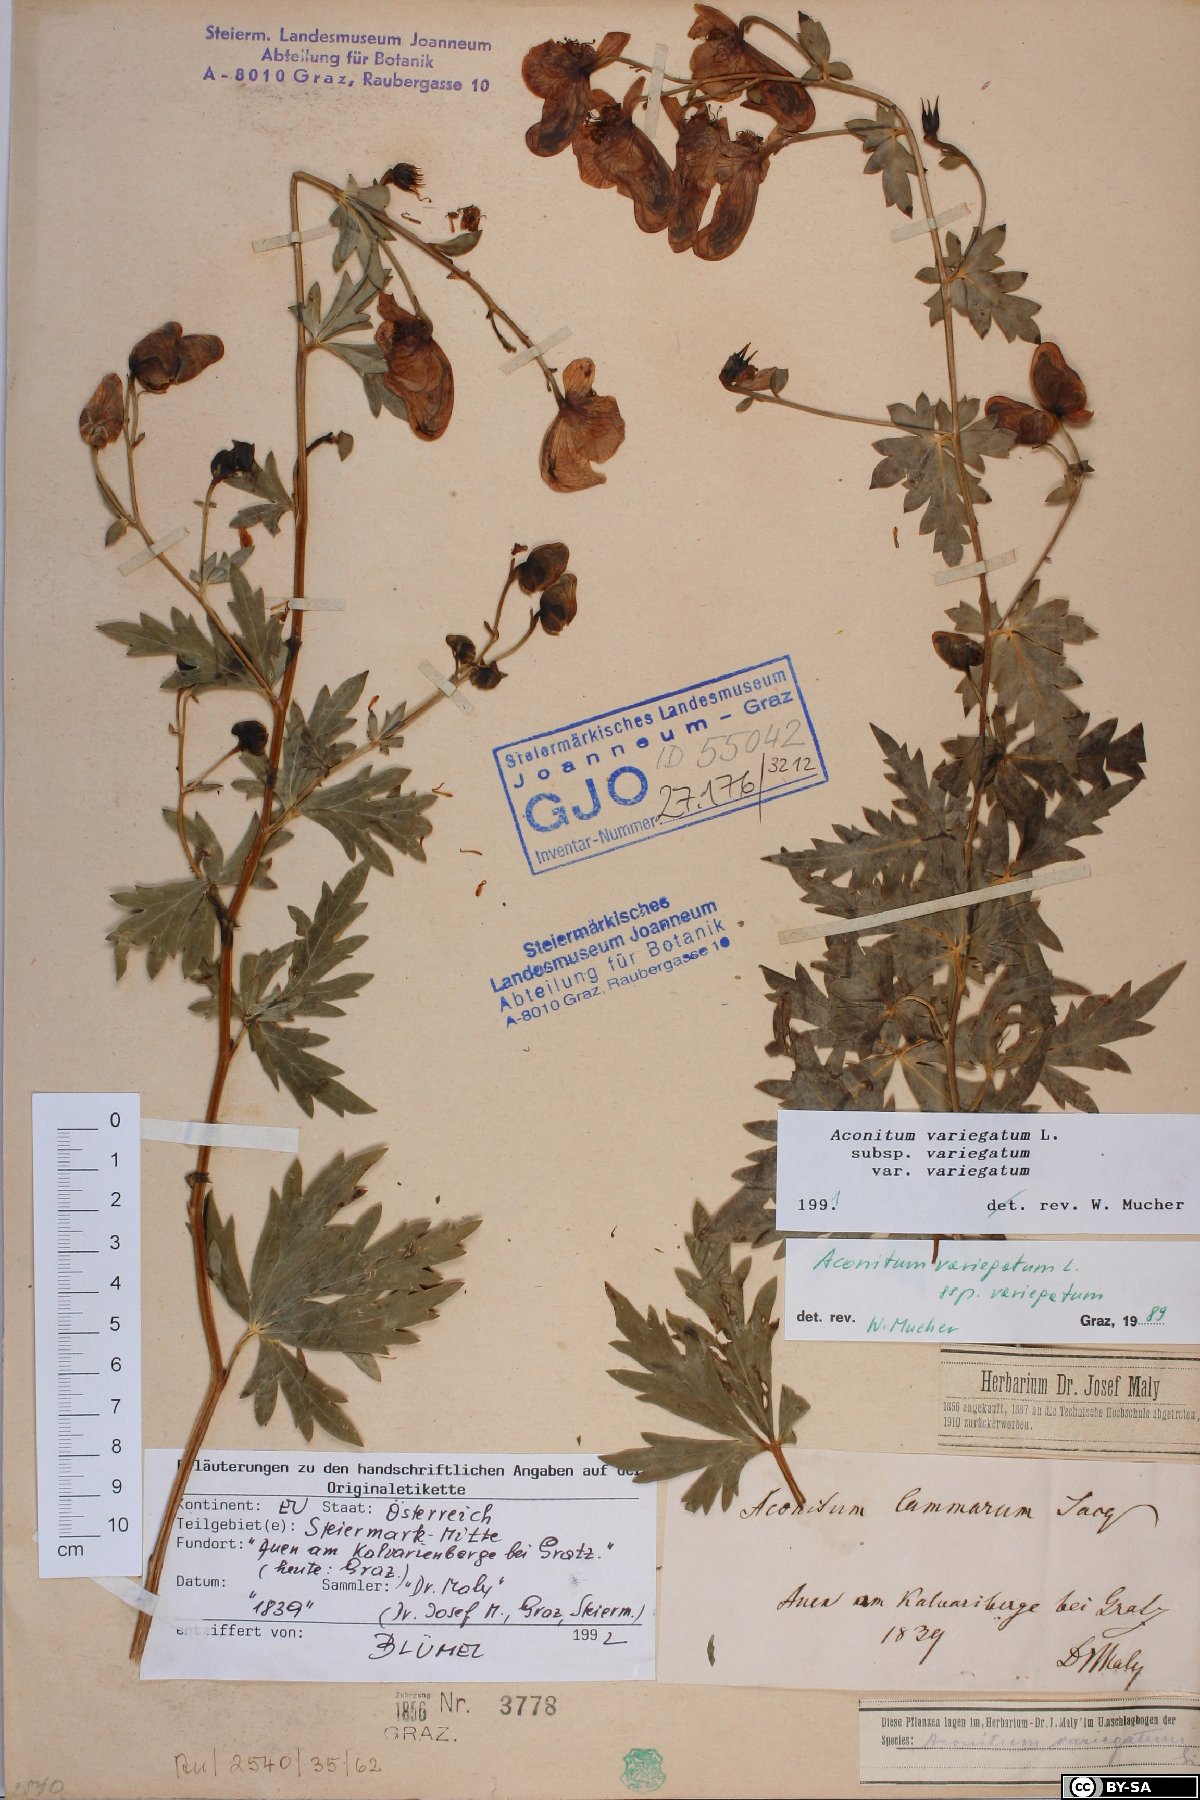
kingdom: Plantae
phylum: Tracheophyta
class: Magnoliopsida
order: Ranunculales
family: Ranunculaceae
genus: Aconitum
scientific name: Aconitum variegatum
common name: Manchurian monkshood
